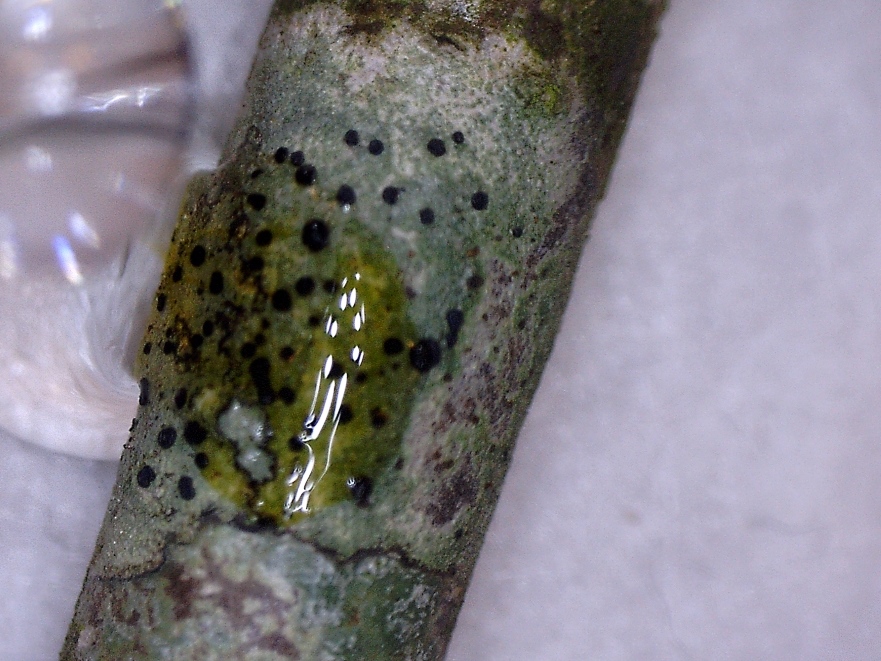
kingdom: Fungi
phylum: Ascomycota
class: Lecanoromycetes
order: Lecanorales
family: Lecanoraceae
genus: Lecidella
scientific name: Lecidella elaeochroma
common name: grågrøn skivelav
